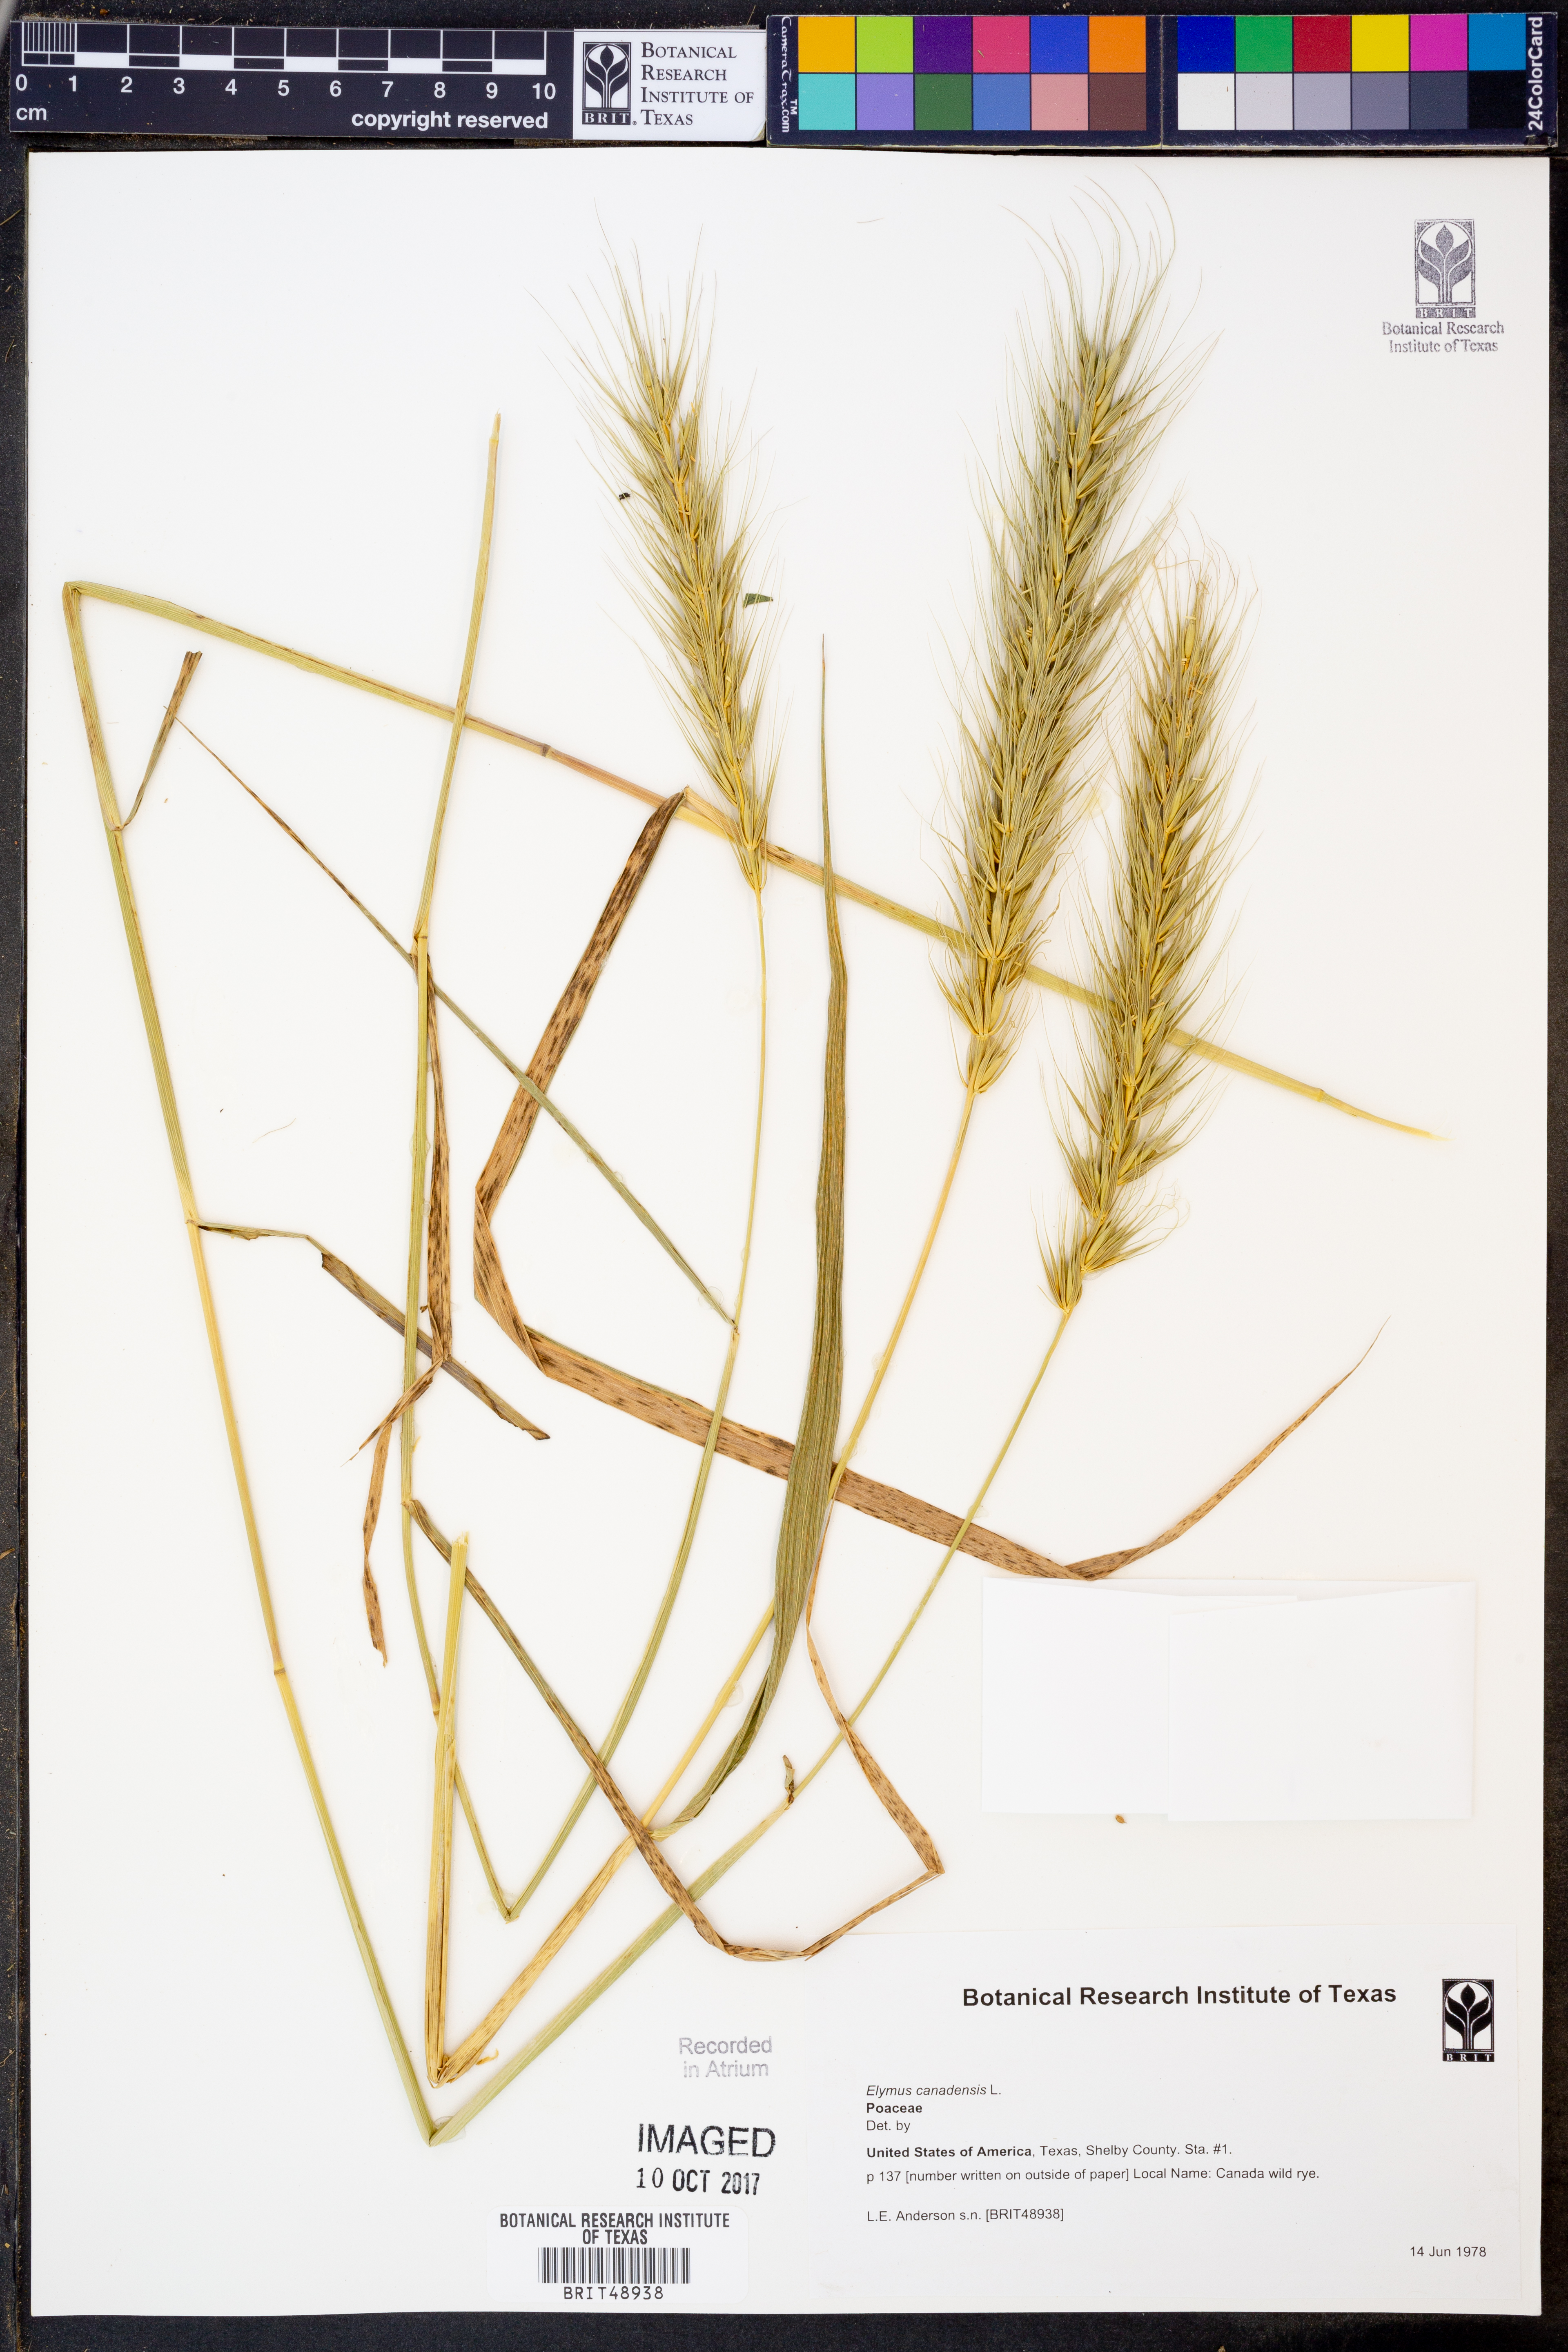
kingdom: Plantae
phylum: Tracheophyta
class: Liliopsida
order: Poales
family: Poaceae
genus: Elymus
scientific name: Elymus canadensis
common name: Canada wild rye
